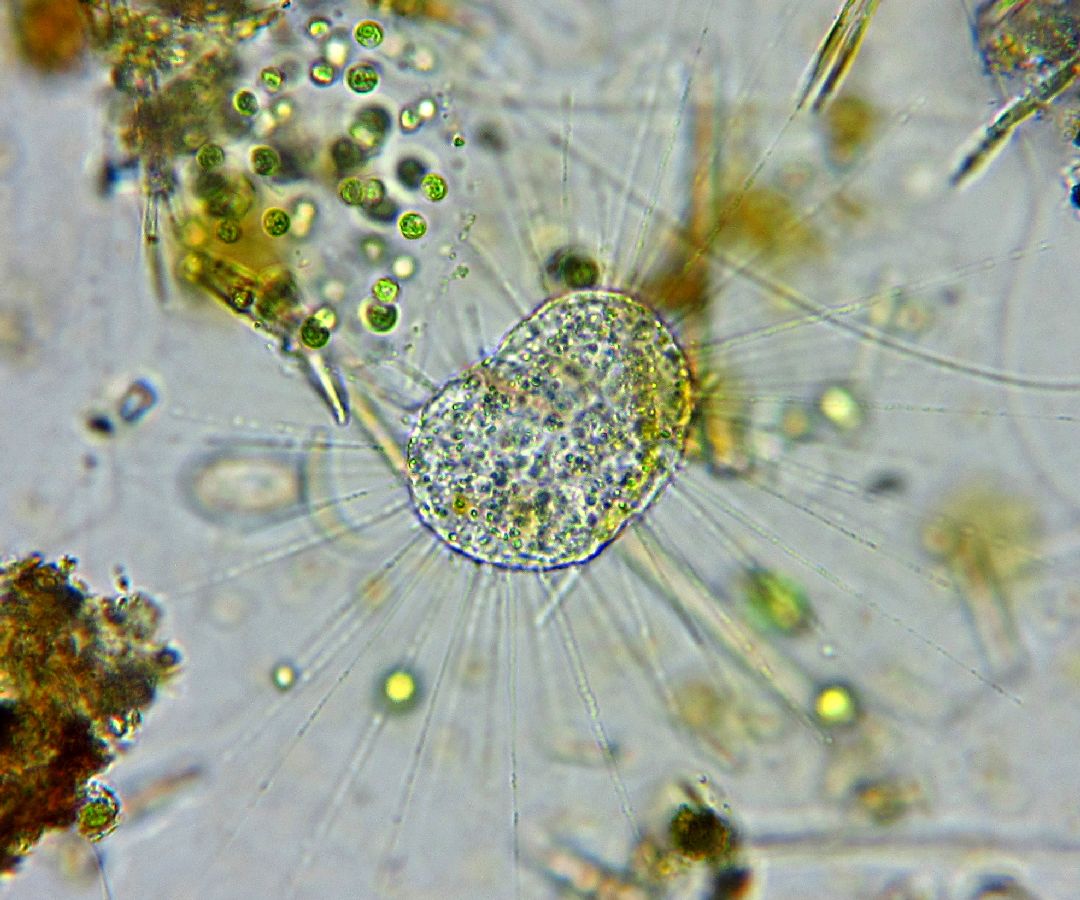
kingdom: Chromista
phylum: Ochrophyta
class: Raphidophyceae
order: Actinophryida
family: Actinophryidae
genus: Actinophrys
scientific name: Actinophrys sol
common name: солнечник
